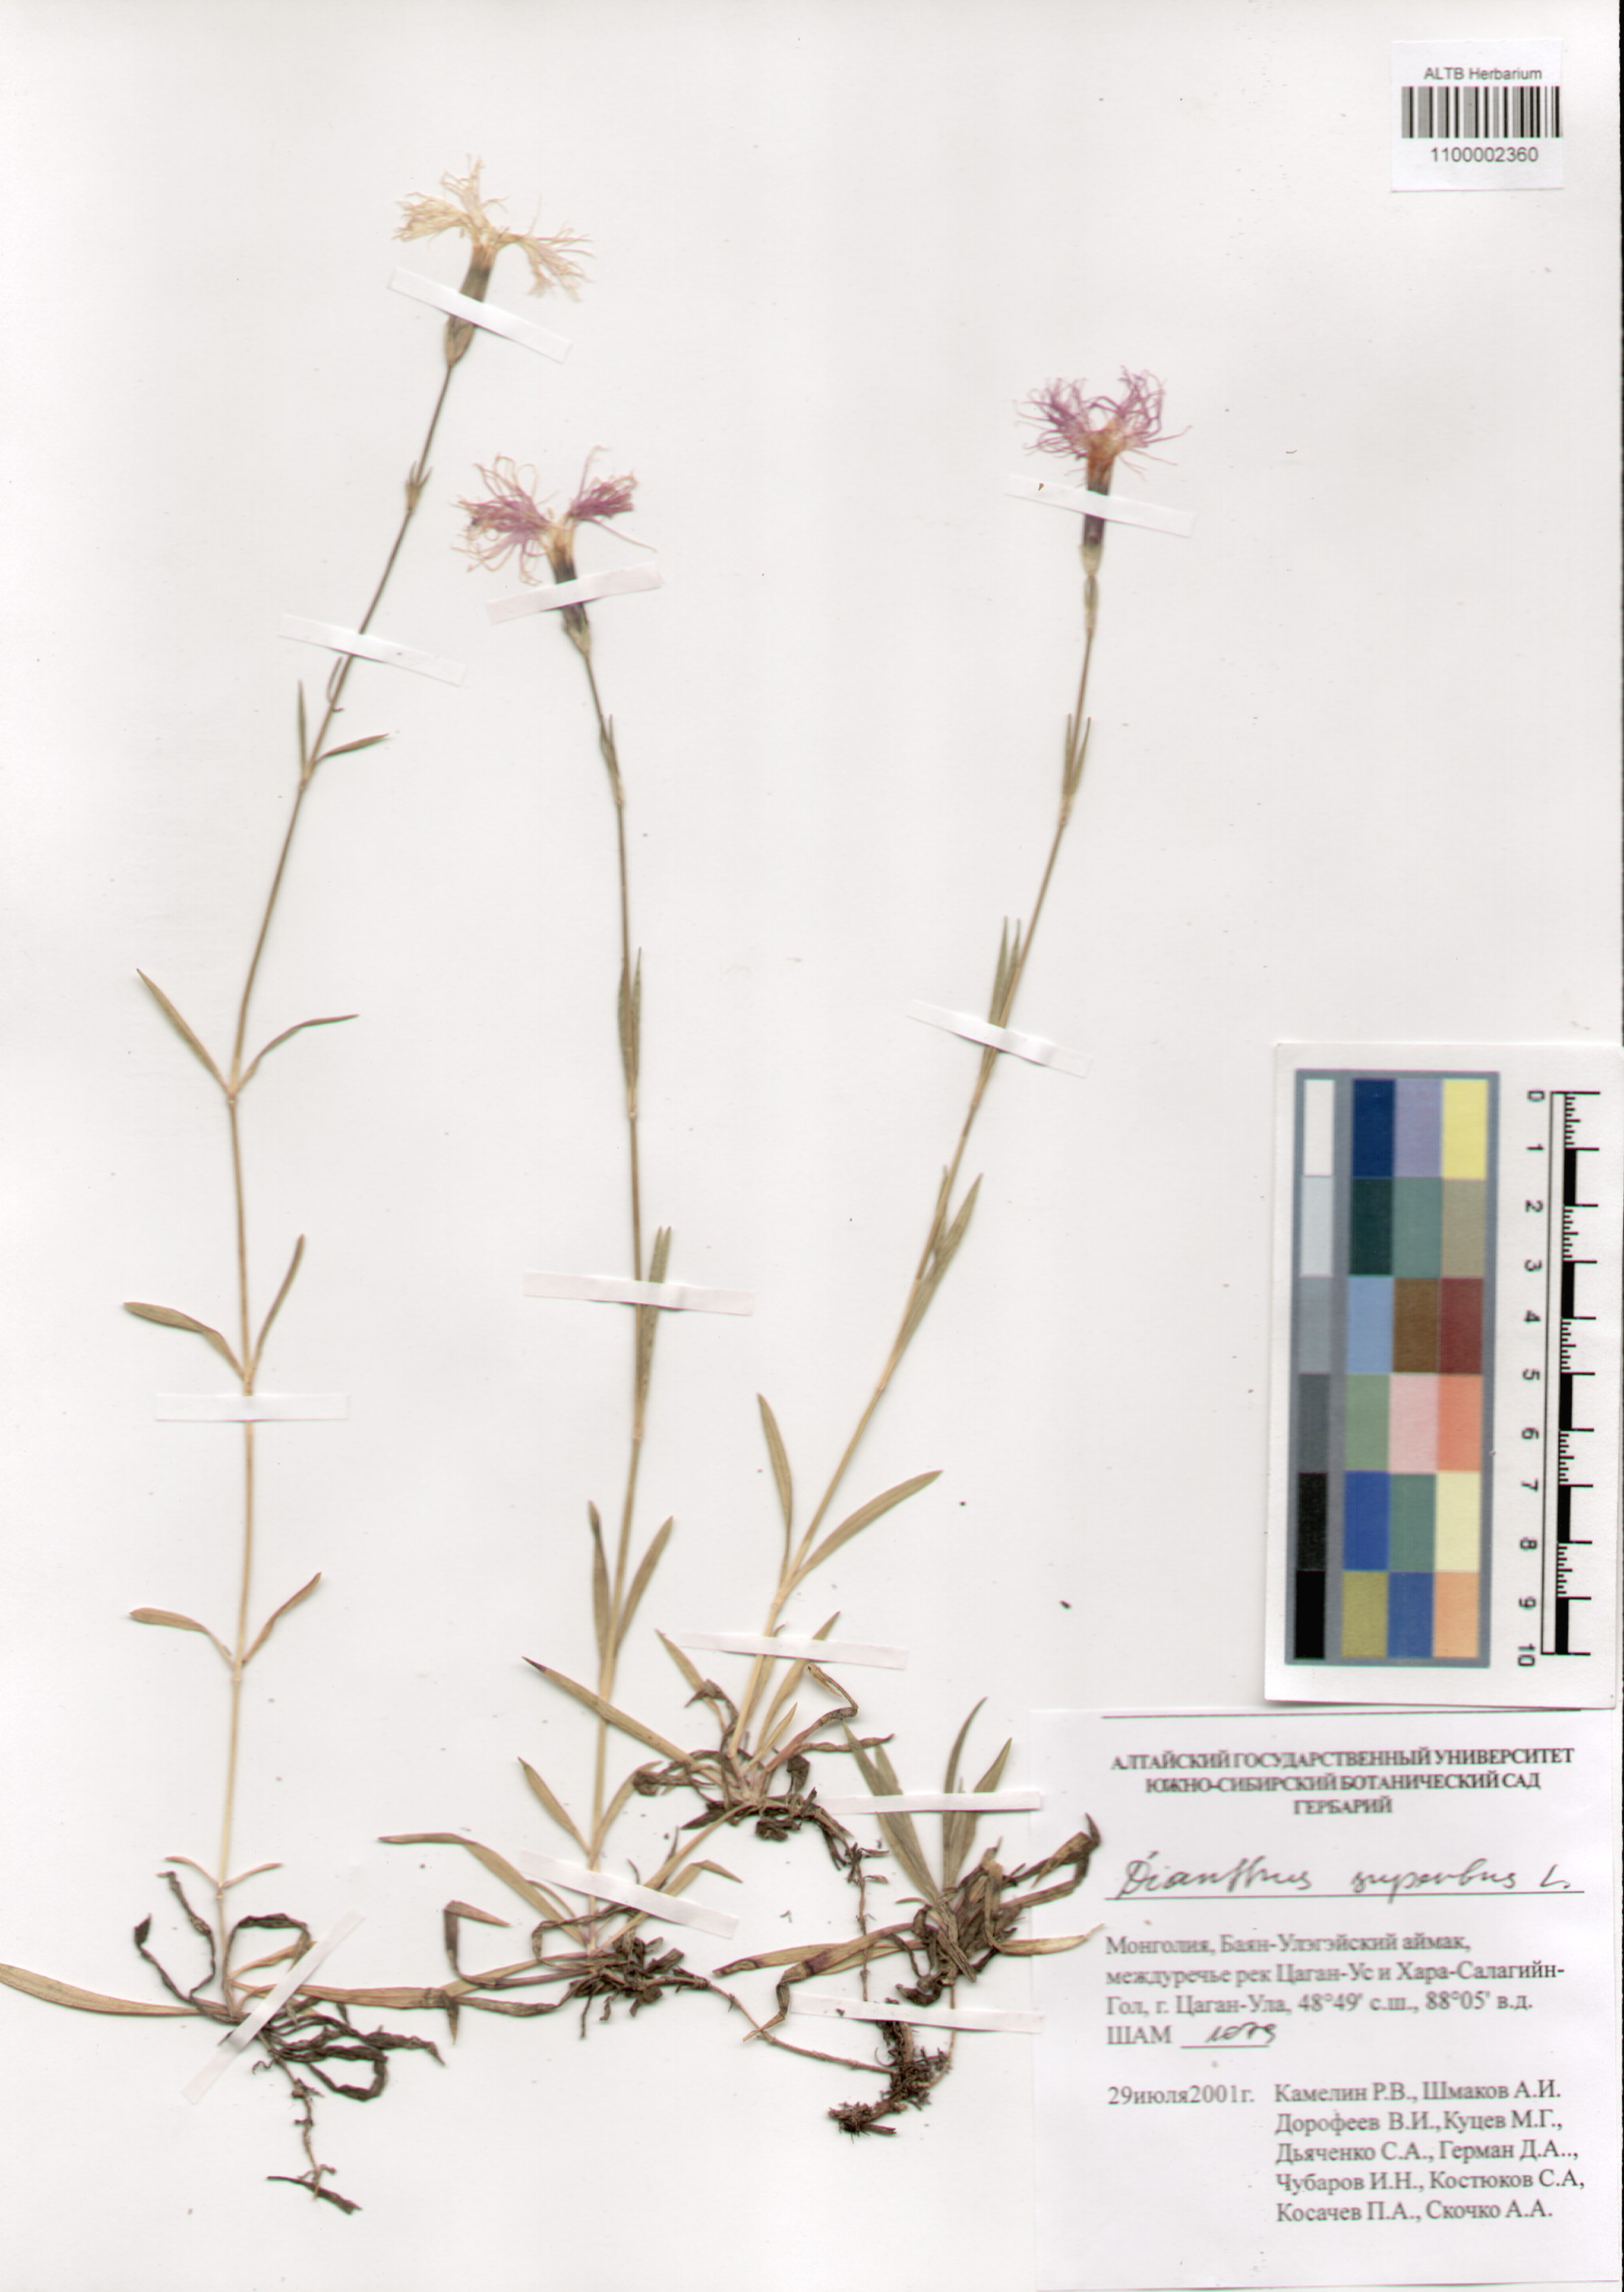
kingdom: Plantae
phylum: Tracheophyta
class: Magnoliopsida
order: Caryophyllales
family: Caryophyllaceae
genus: Dianthus
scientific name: Dianthus superbus
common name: Fringed pink
